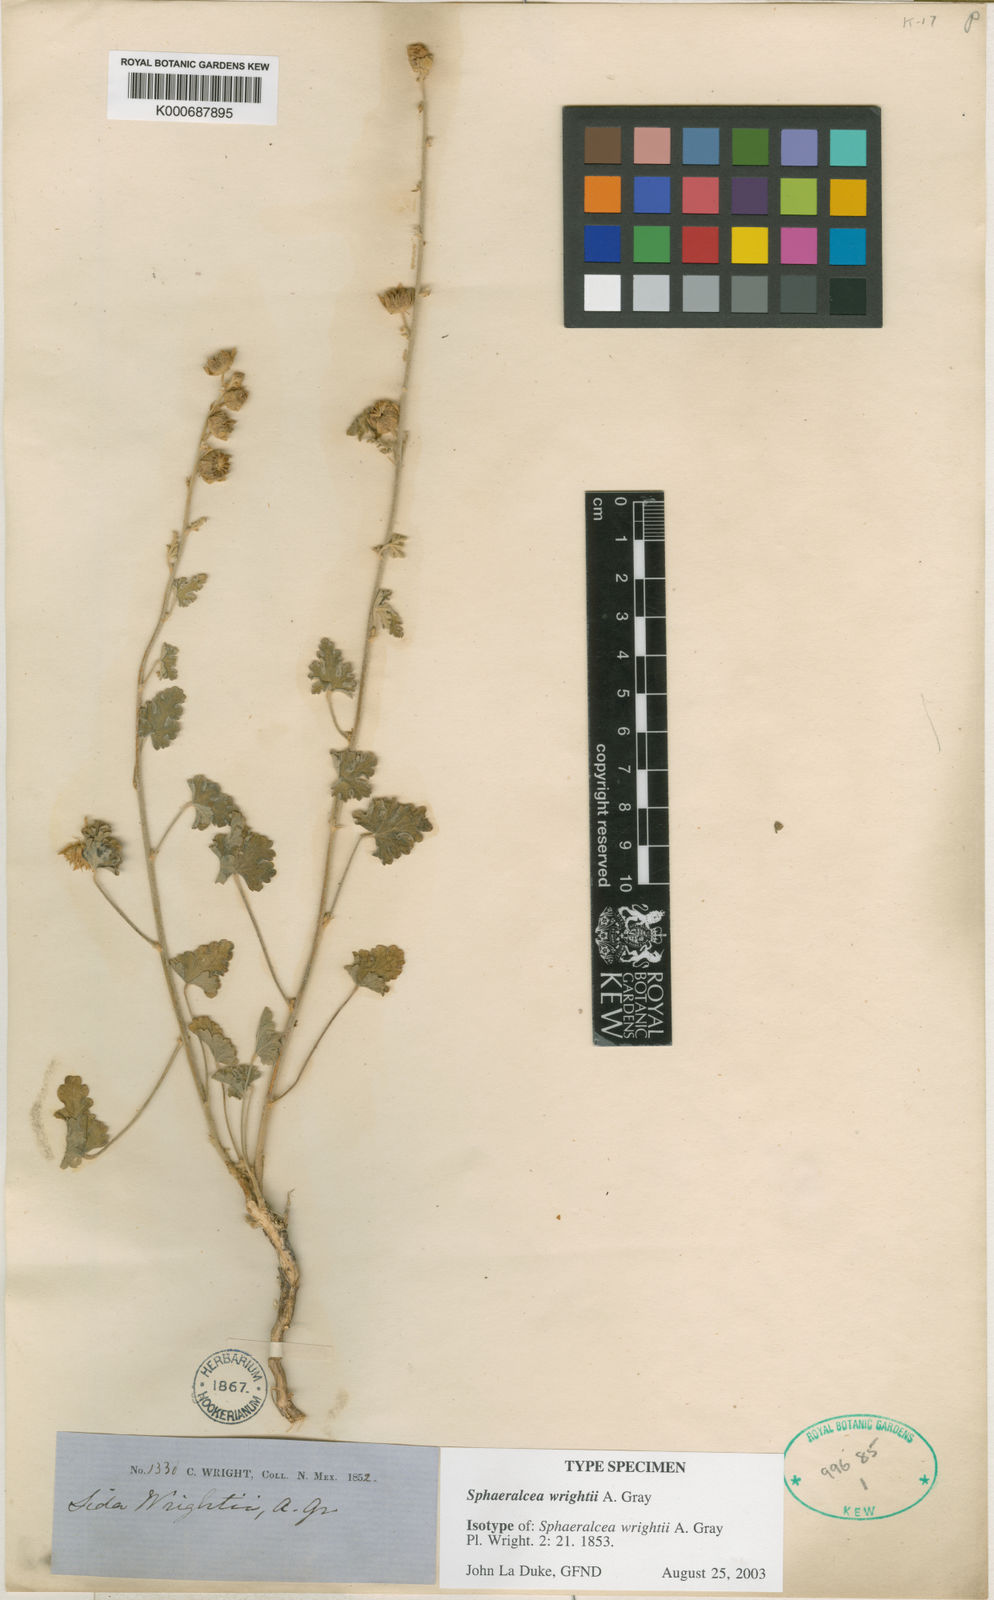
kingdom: Plantae
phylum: Tracheophyta
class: Magnoliopsida
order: Malvales
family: Malvaceae
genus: Sphaeralcea
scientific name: Sphaeralcea wrightii
